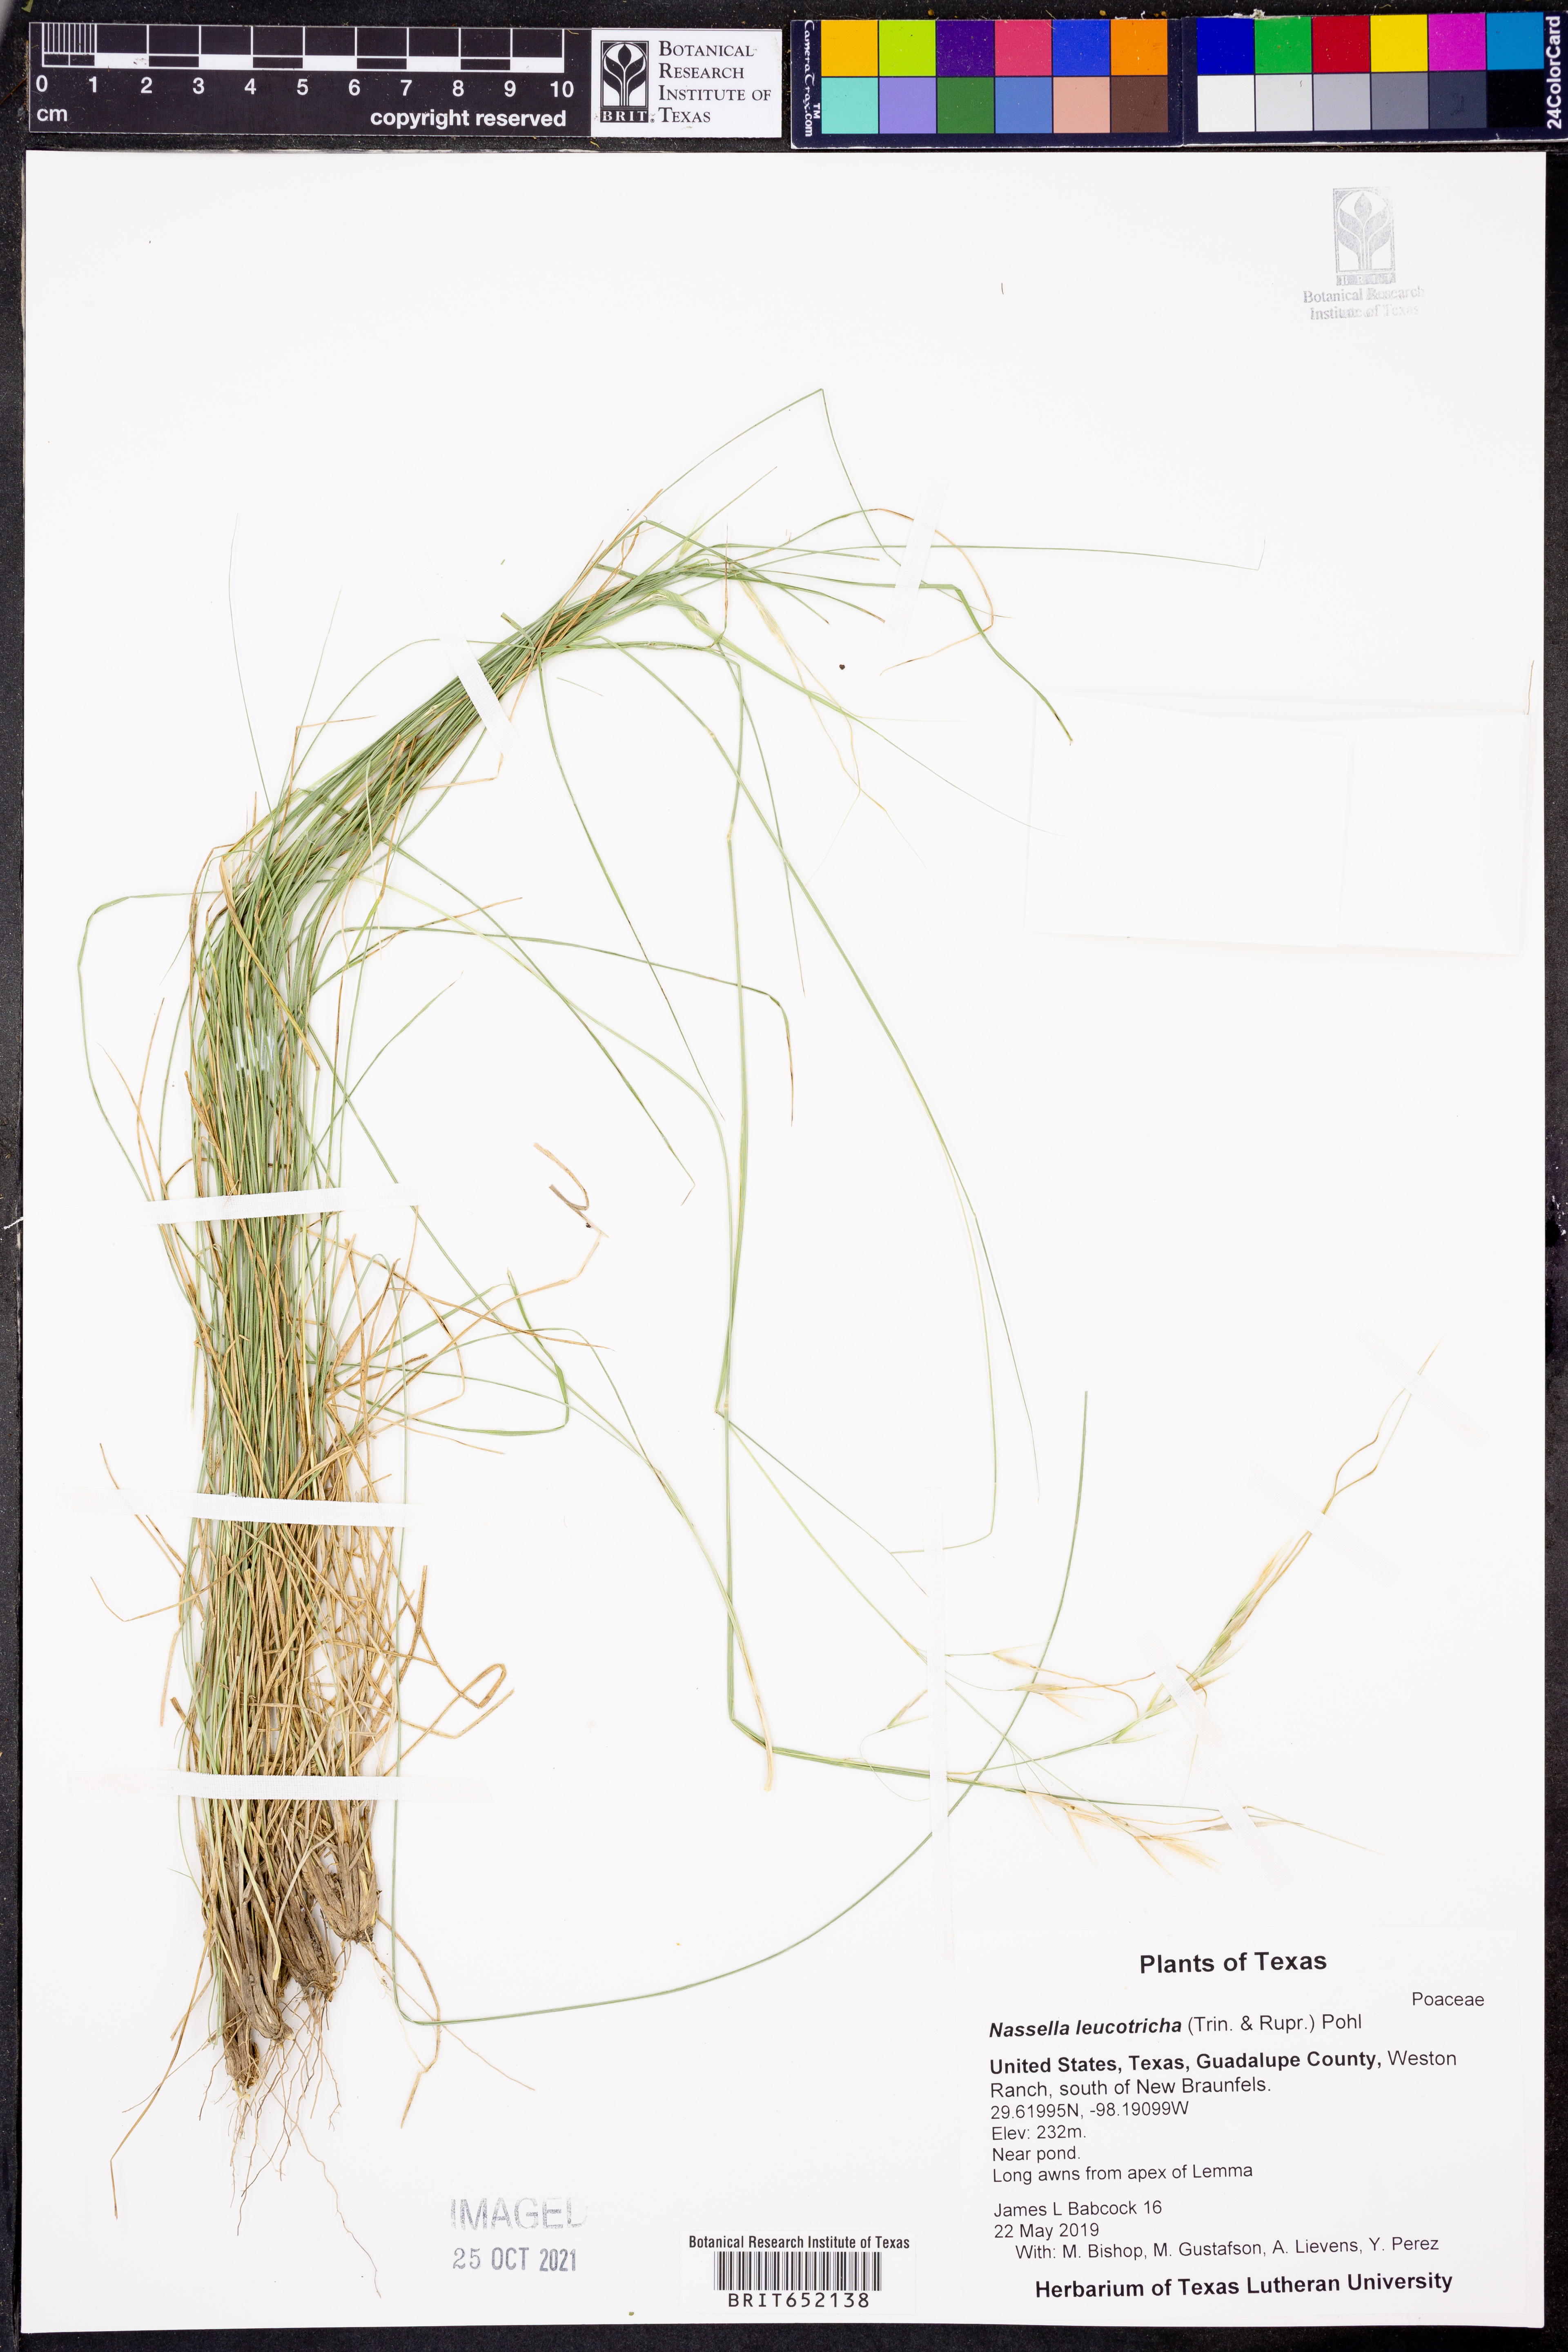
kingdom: Plantae
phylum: Tracheophyta
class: Liliopsida
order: Poales
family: Poaceae
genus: Nassella
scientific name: Nassella leucotricha
